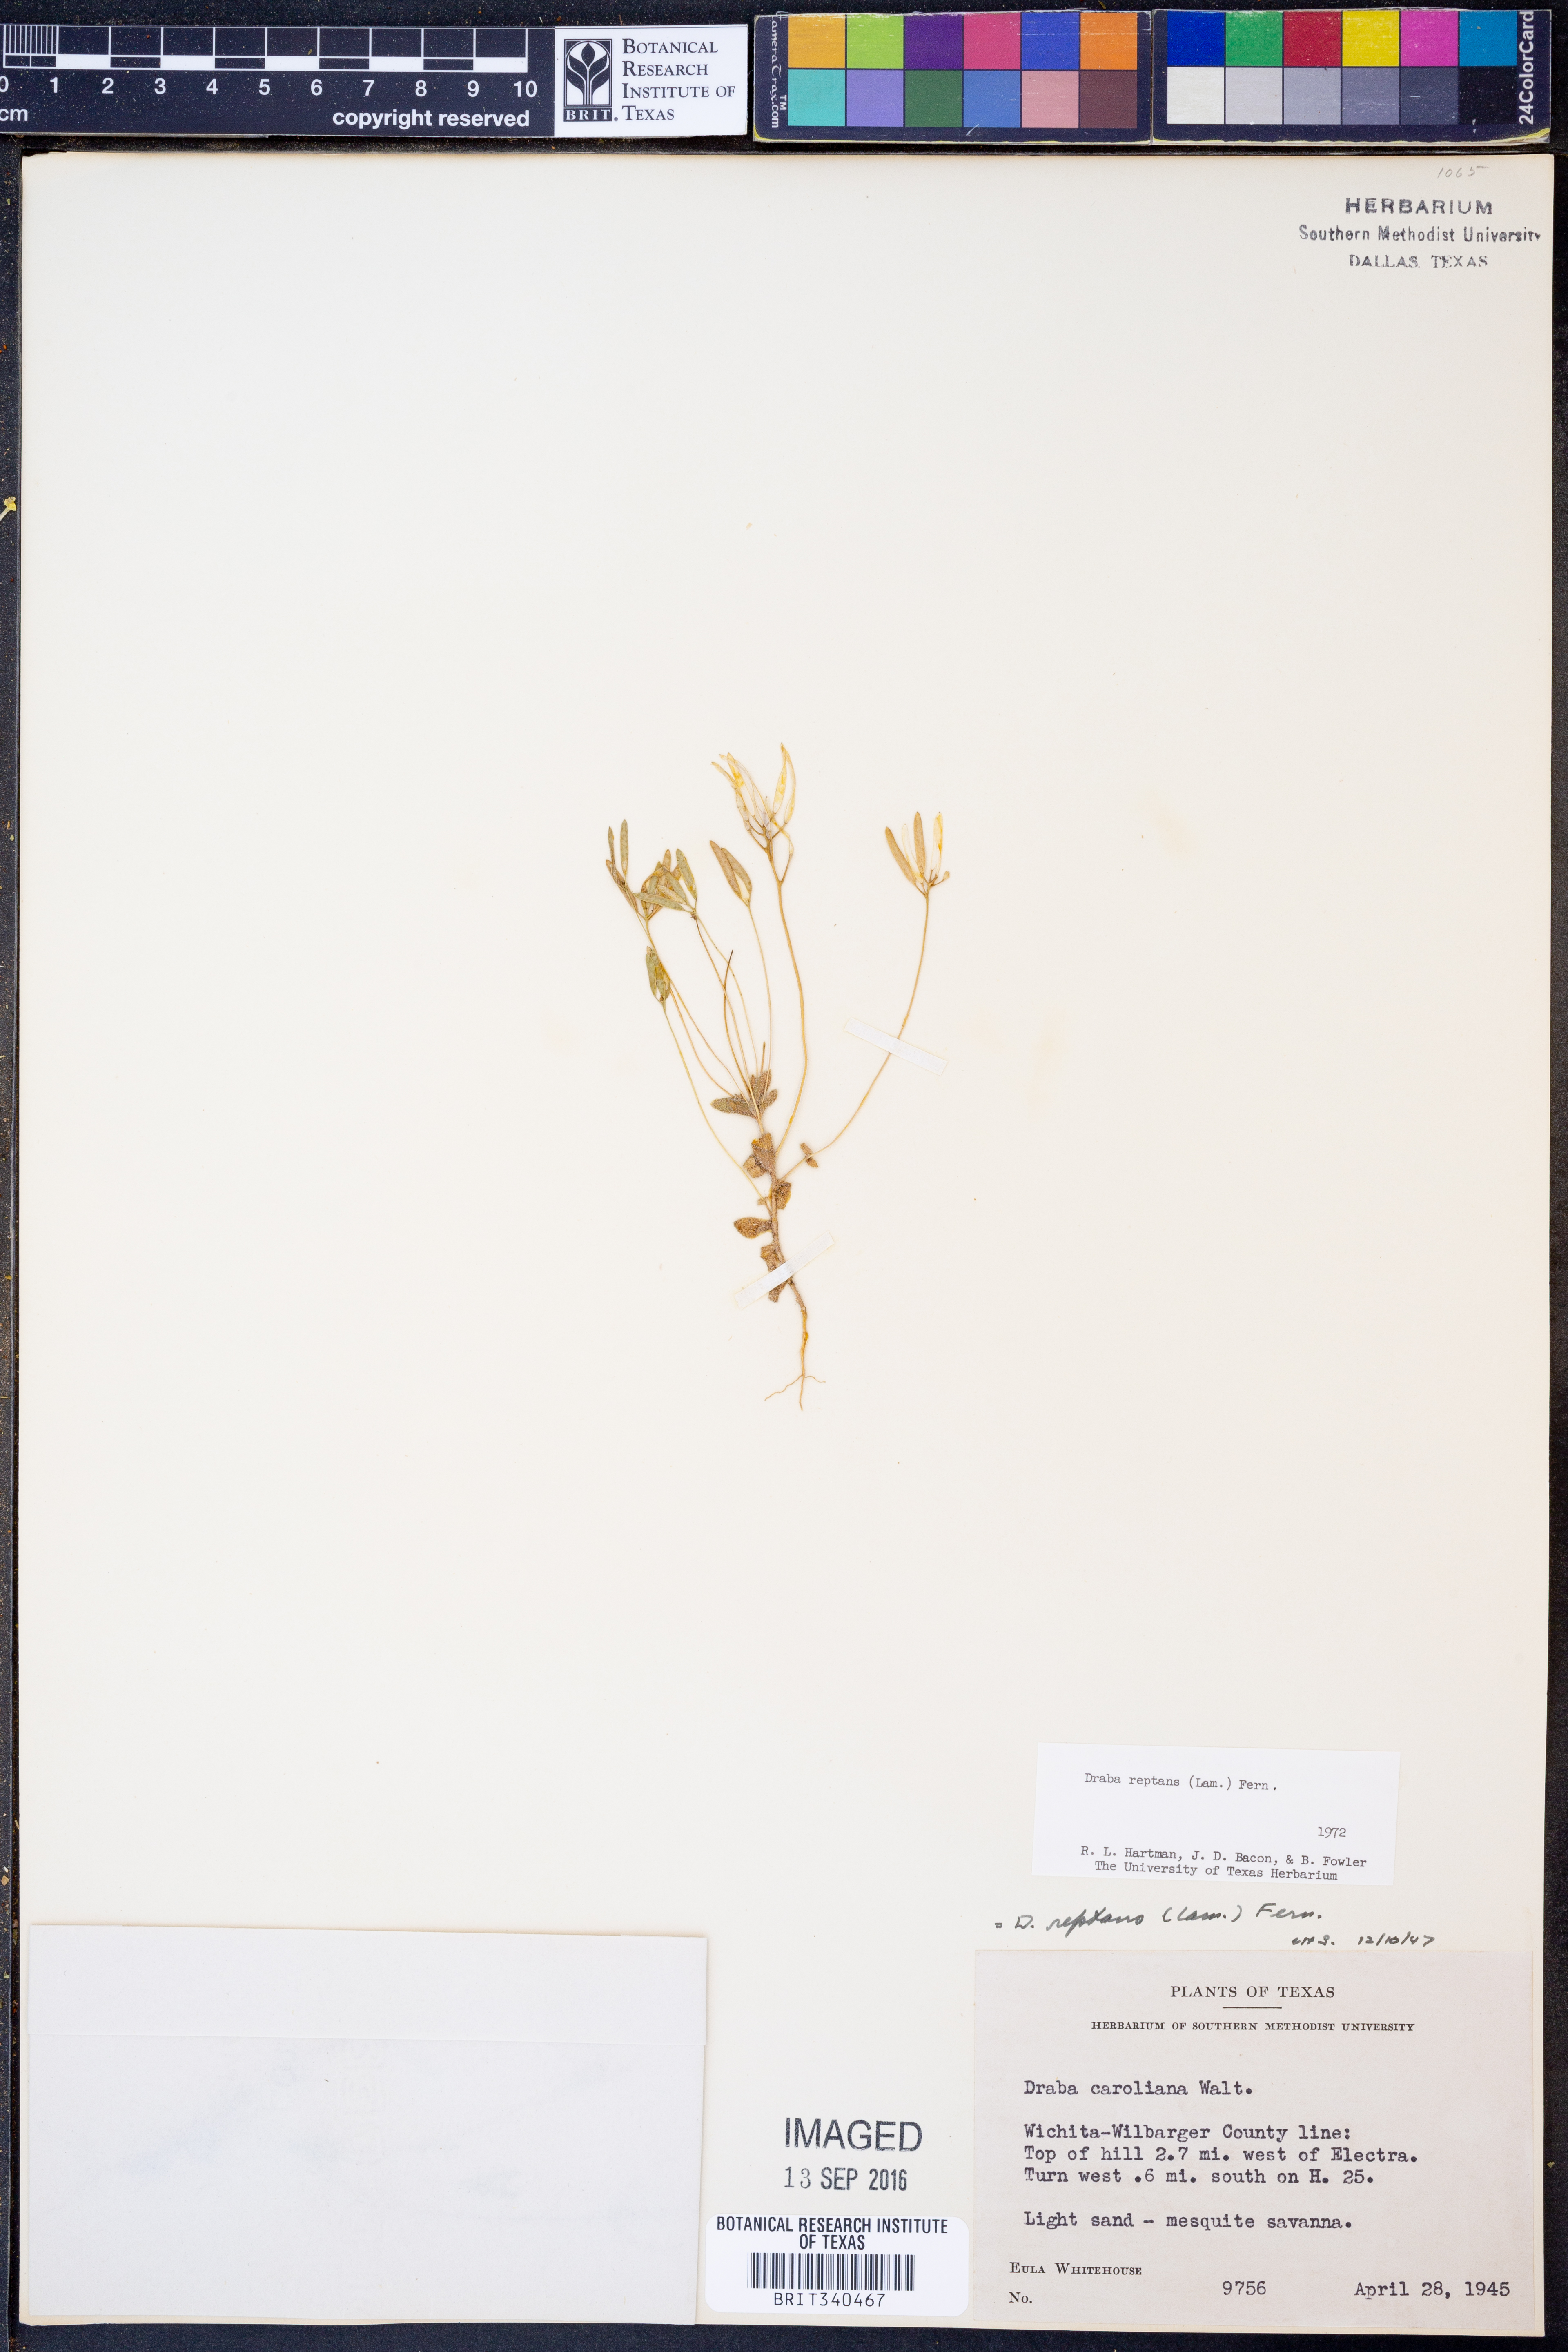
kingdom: Plantae
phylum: Tracheophyta
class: Magnoliopsida
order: Brassicales
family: Brassicaceae
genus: Tomostima
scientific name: Tomostima reptans
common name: Carolina draba
